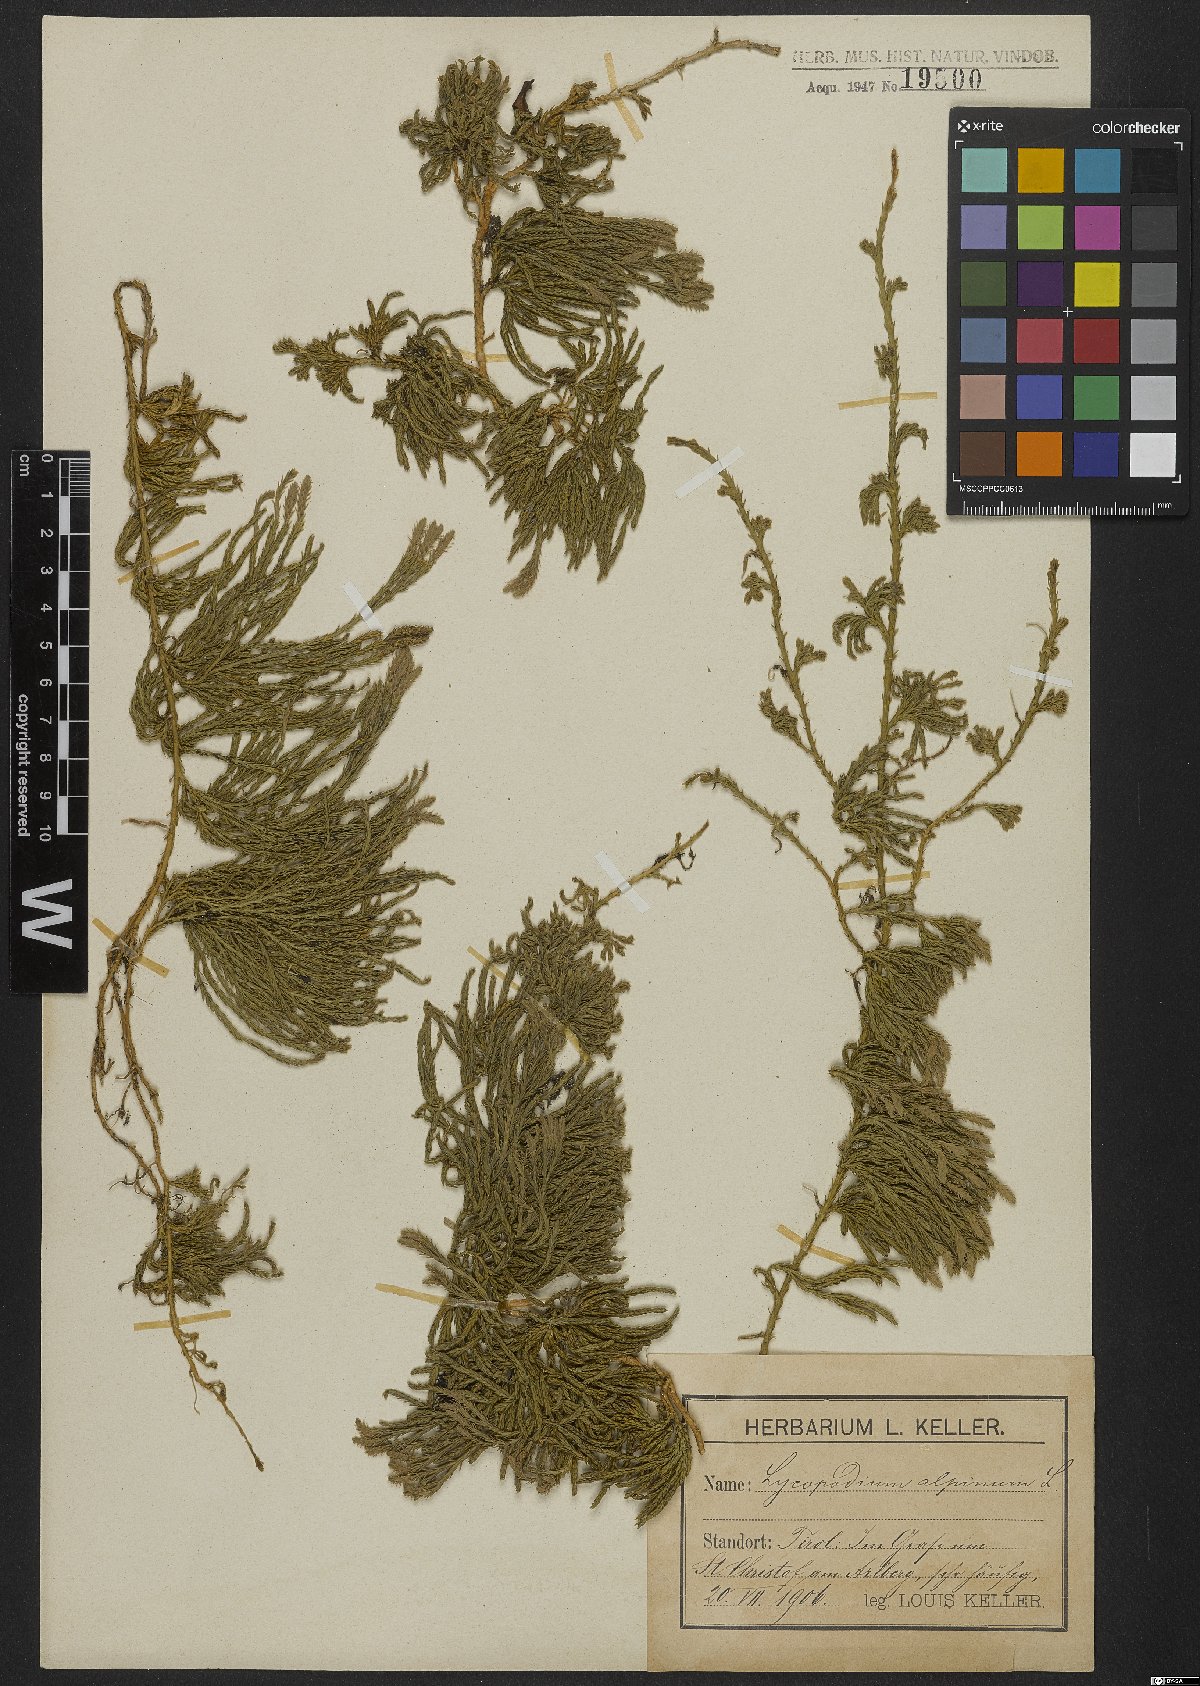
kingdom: Plantae
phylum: Tracheophyta
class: Lycopodiopsida
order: Lycopodiales
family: Lycopodiaceae
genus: Diphasiastrum
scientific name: Diphasiastrum alpinum
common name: Alpine clubmoss
